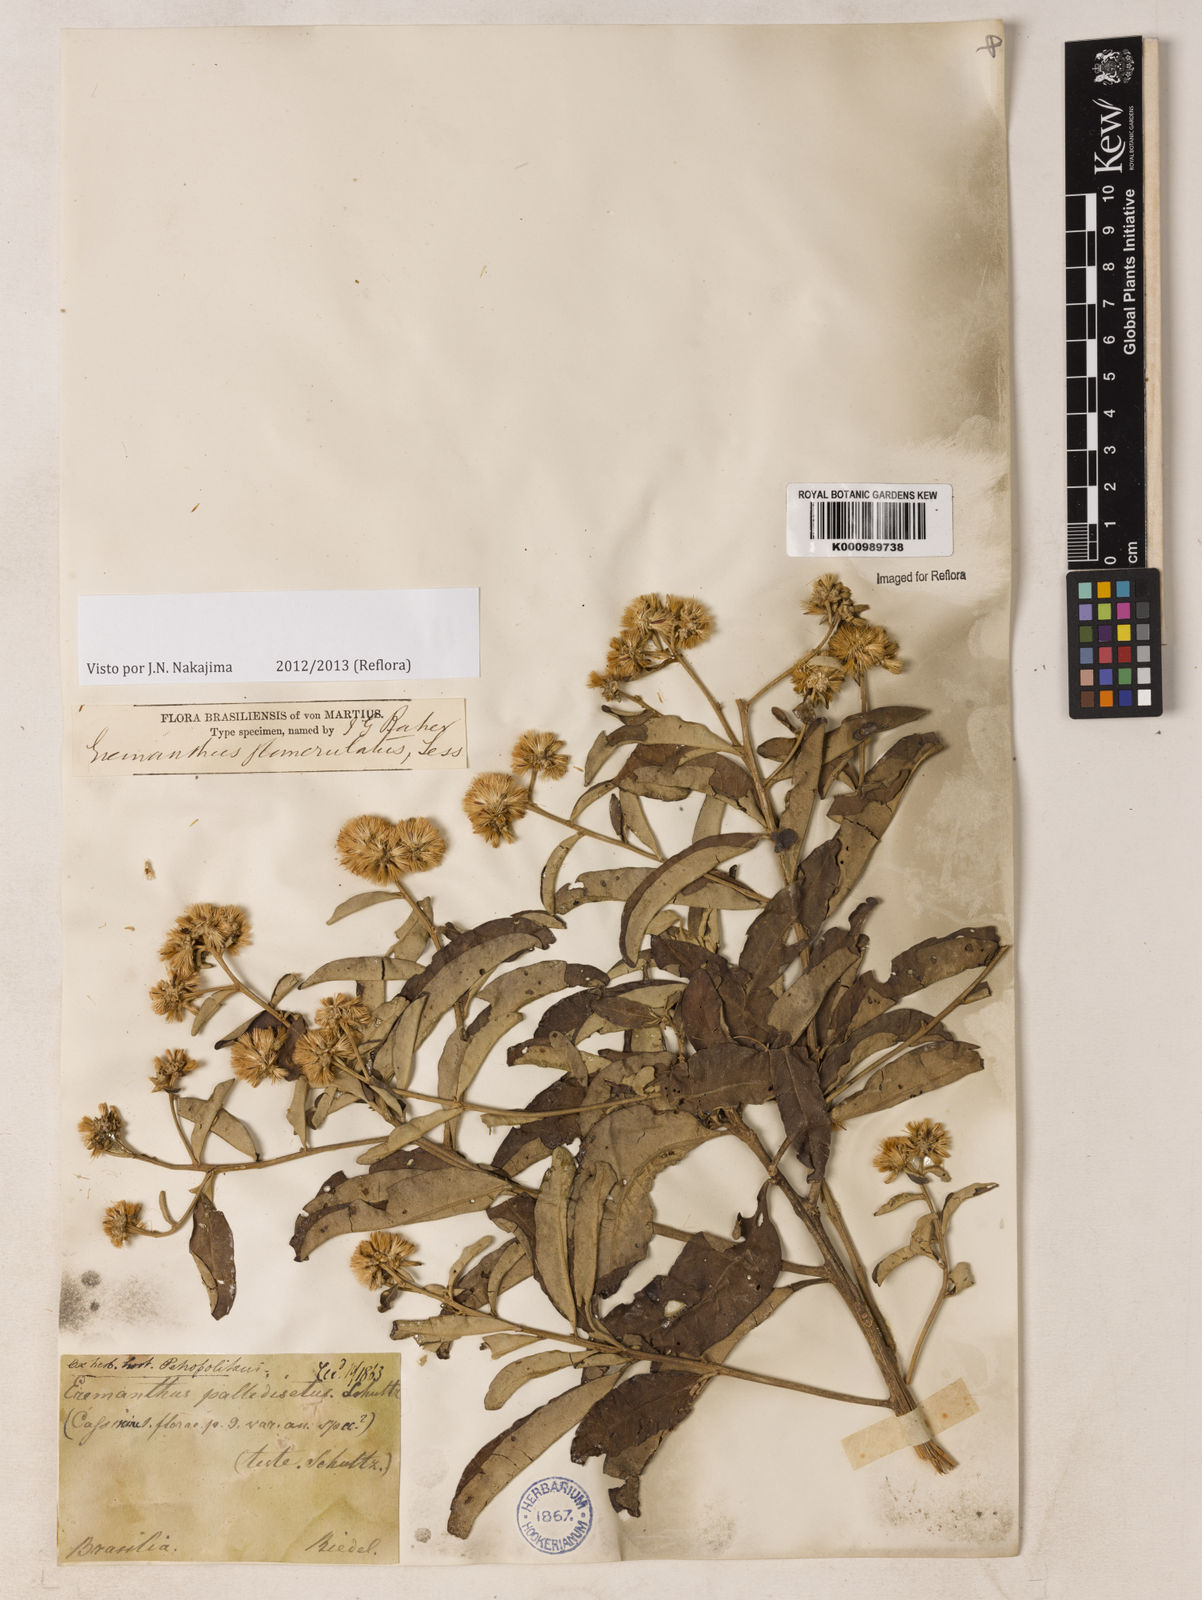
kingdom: Plantae
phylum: Tracheophyta
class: Magnoliopsida
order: Asterales
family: Asteraceae
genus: Eremanthus
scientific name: Eremanthus glomerulatus
